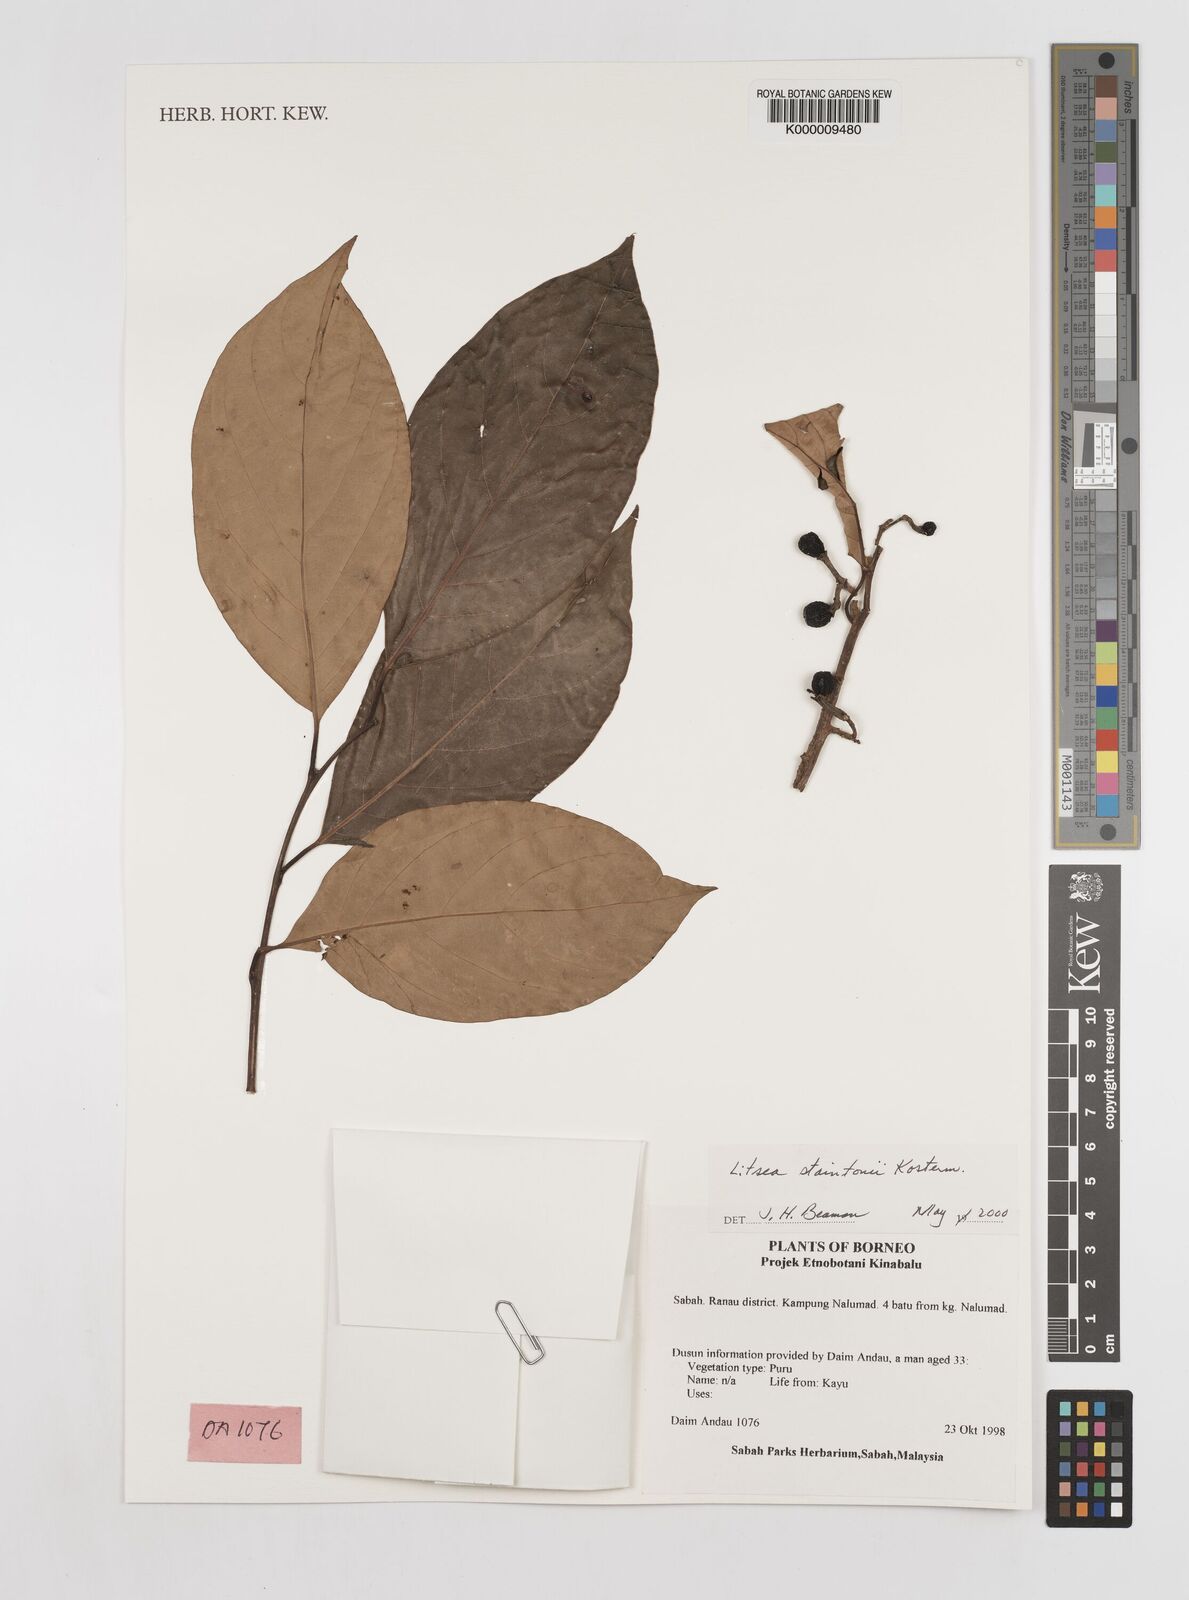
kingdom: Plantae
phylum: Tracheophyta
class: Magnoliopsida
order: Laurales
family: Lauraceae
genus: Litsea
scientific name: Litsea staintonii
